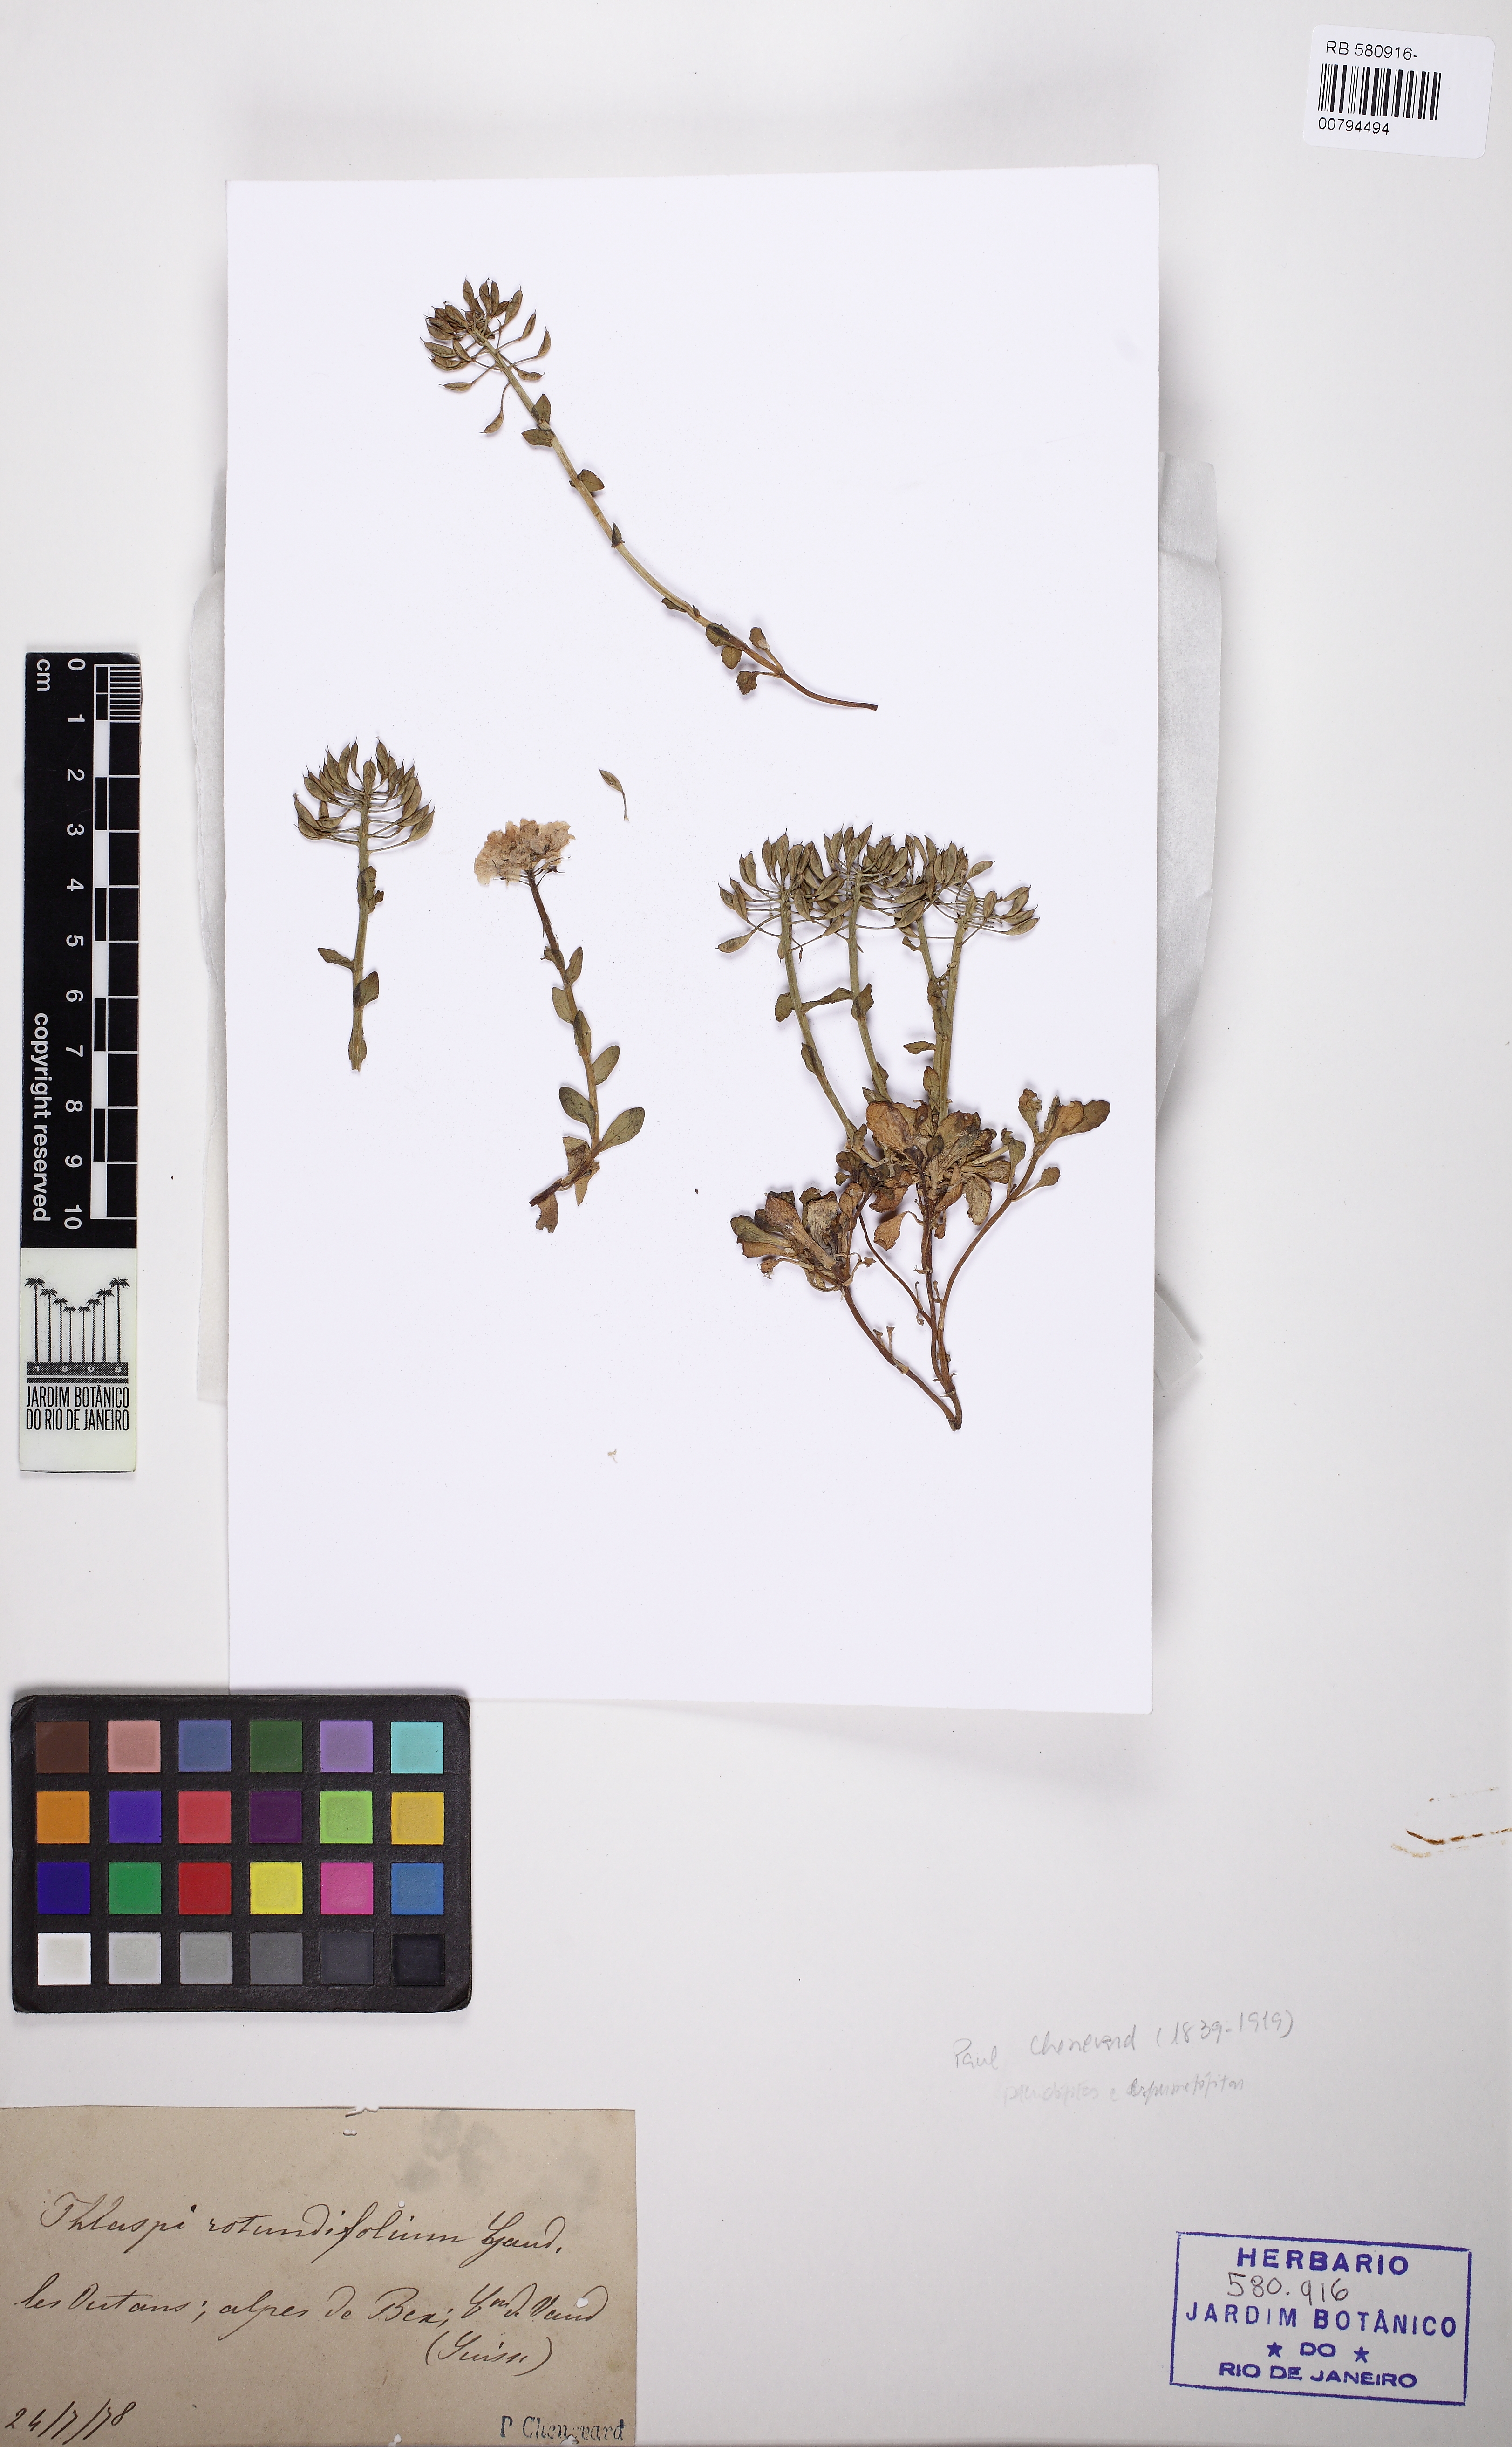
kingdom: Plantae
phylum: Tracheophyta
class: Magnoliopsida
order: Brassicales
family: Brassicaceae
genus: Noccaea
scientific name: Noccaea rotundifolia
